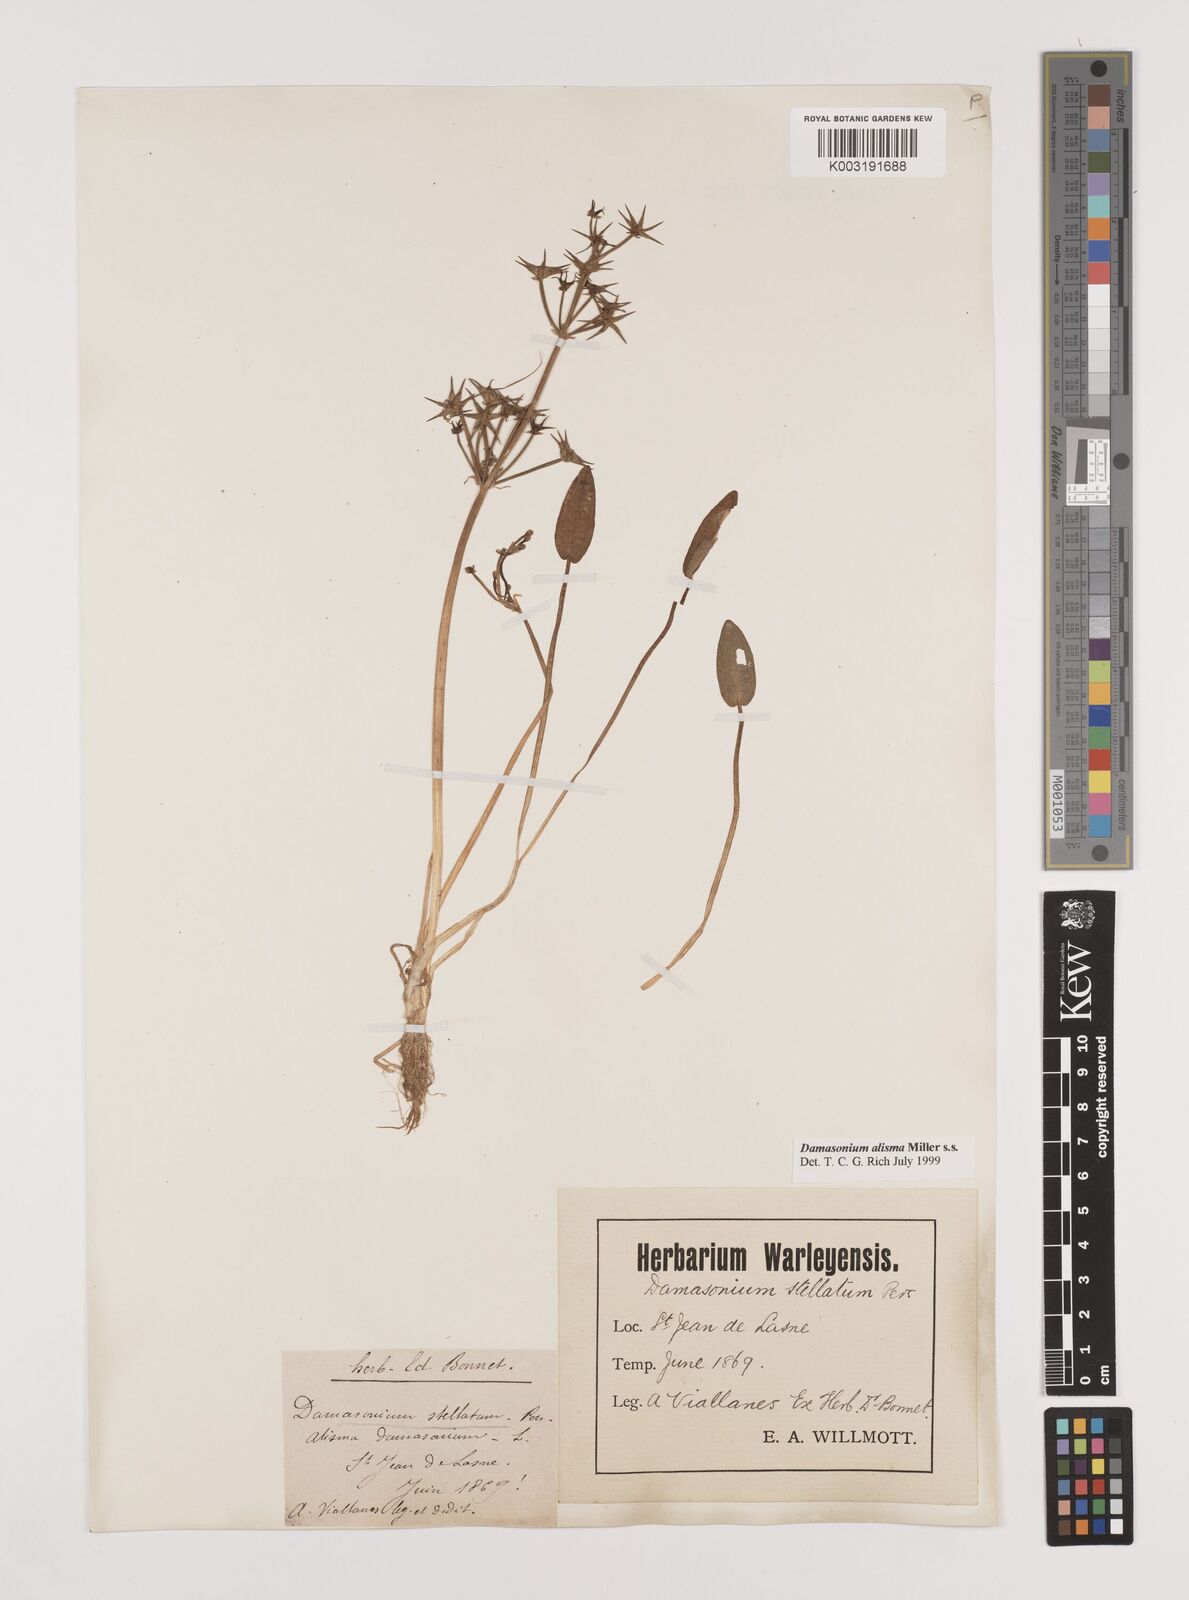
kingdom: Plantae
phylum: Tracheophyta
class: Liliopsida
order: Alismatales
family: Alismataceae
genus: Damasonium
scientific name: Damasonium alisma
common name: Starfruit
